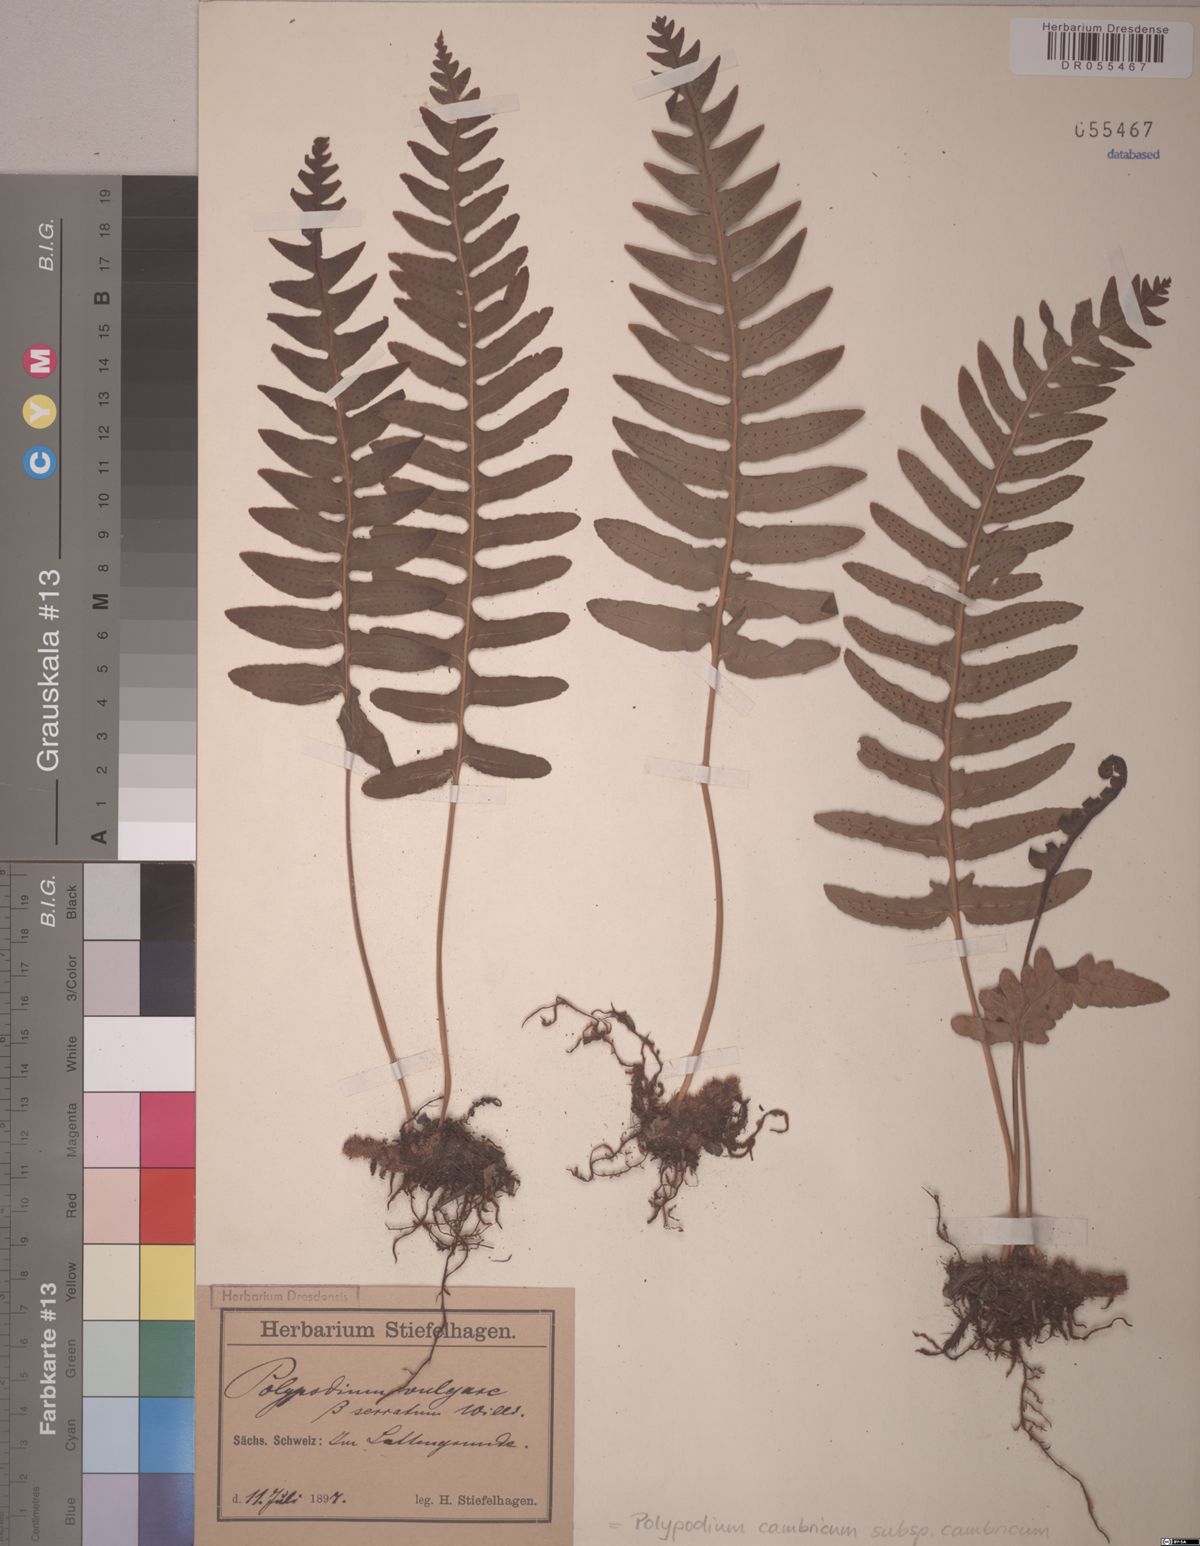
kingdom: Plantae
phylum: Tracheophyta
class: Polypodiopsida
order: Polypodiales
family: Polypodiaceae
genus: Polypodium
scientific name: Polypodium vulgare
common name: Common polypody
